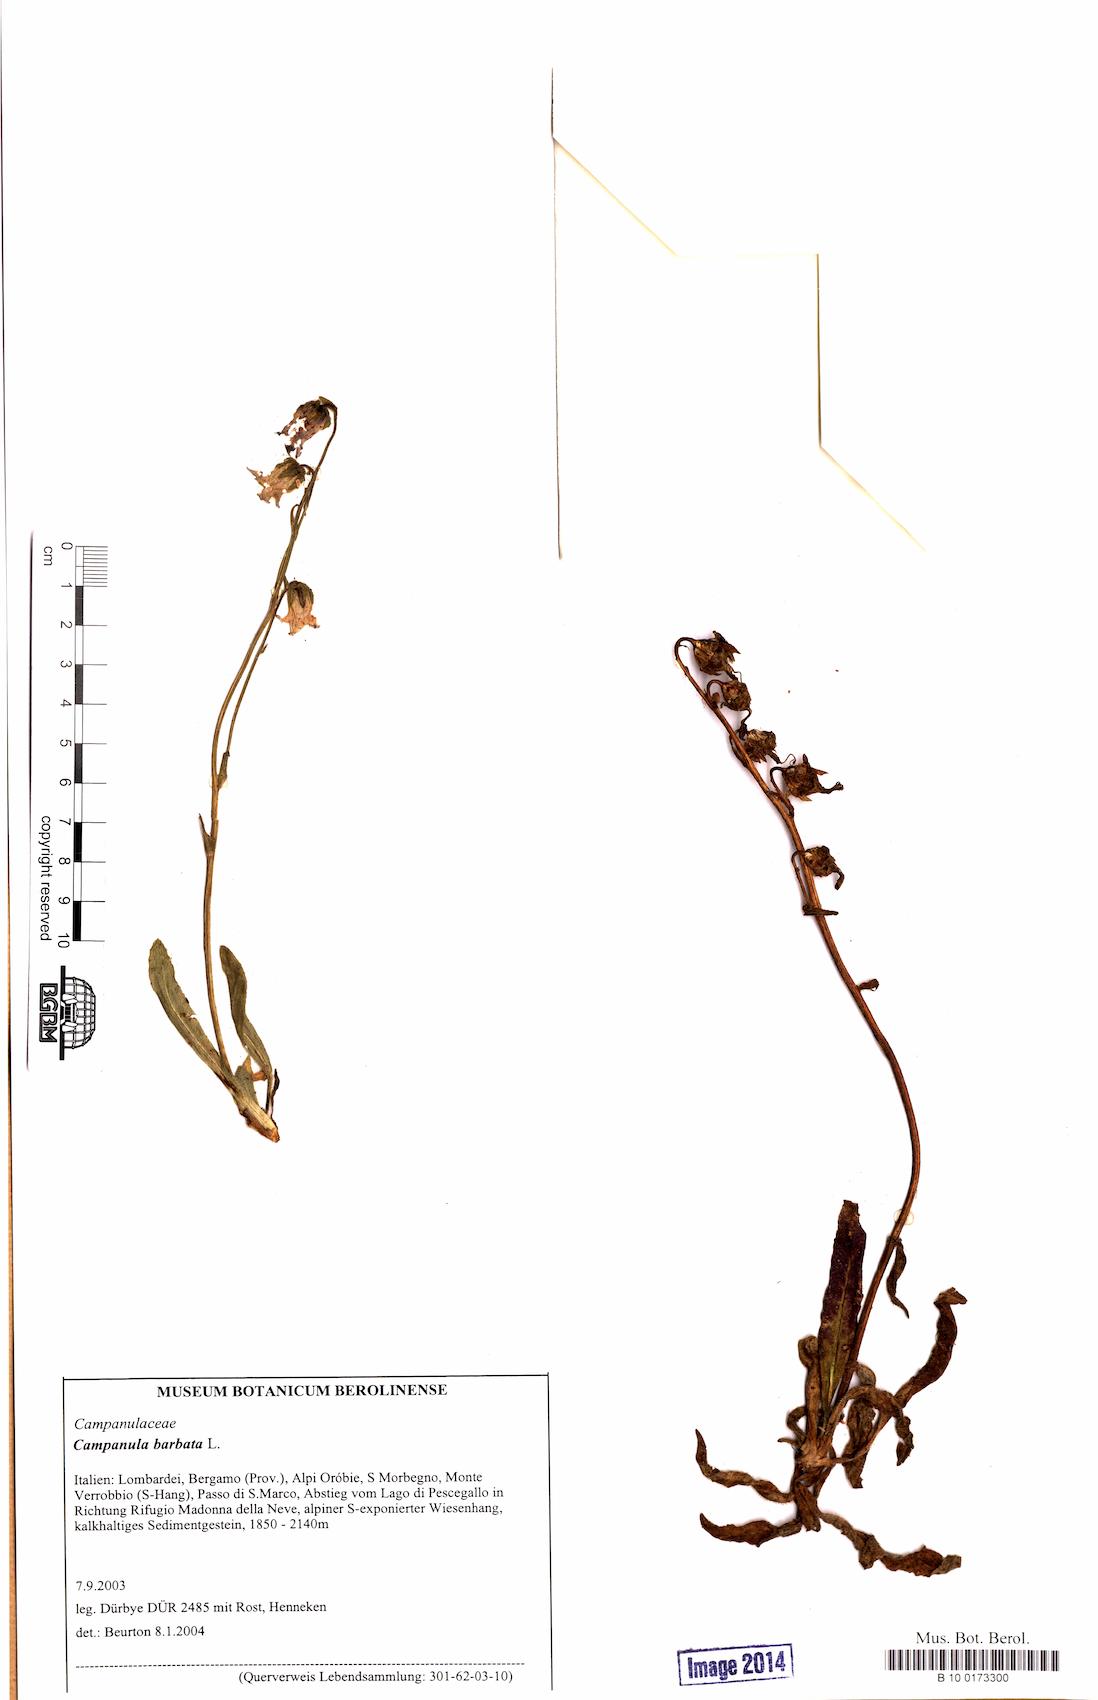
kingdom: Plantae
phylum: Tracheophyta
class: Magnoliopsida
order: Asterales
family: Campanulaceae
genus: Campanula
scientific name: Campanula barbata
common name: Bearded bellflower
